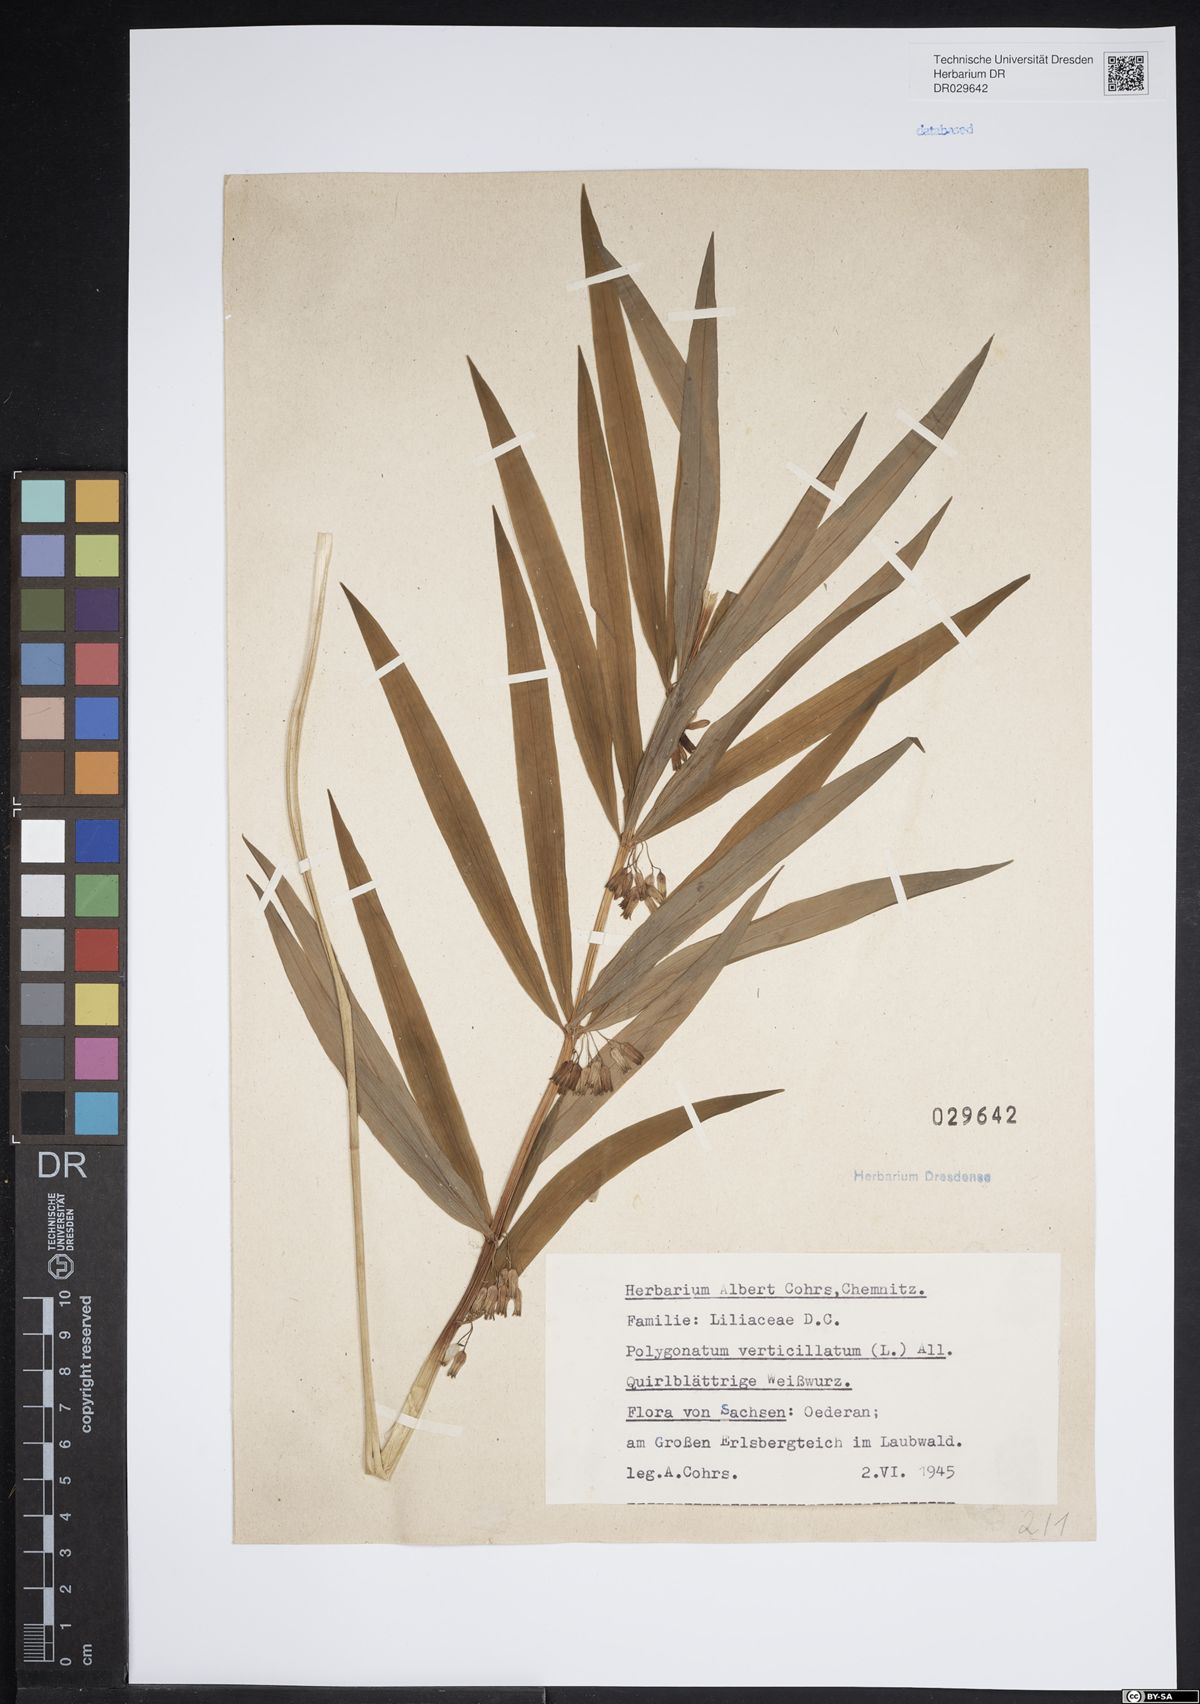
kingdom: Plantae
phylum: Tracheophyta
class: Liliopsida
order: Asparagales
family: Asparagaceae
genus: Polygonatum
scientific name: Polygonatum verticillatum
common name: Whorled solomon's-seal
